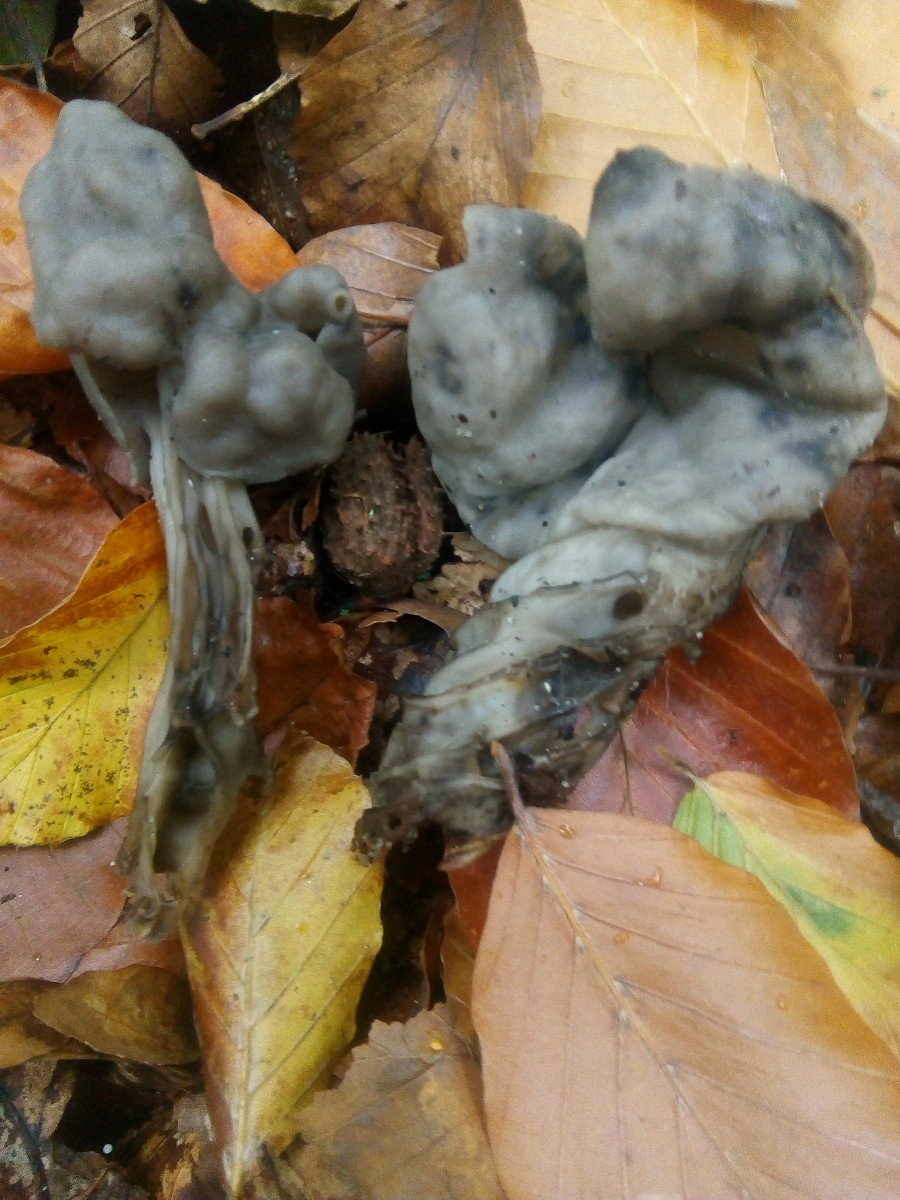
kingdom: Fungi
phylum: Ascomycota
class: Pezizomycetes
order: Pezizales
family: Helvellaceae
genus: Helvella
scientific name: Helvella lacunosa
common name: grubet foldhat
